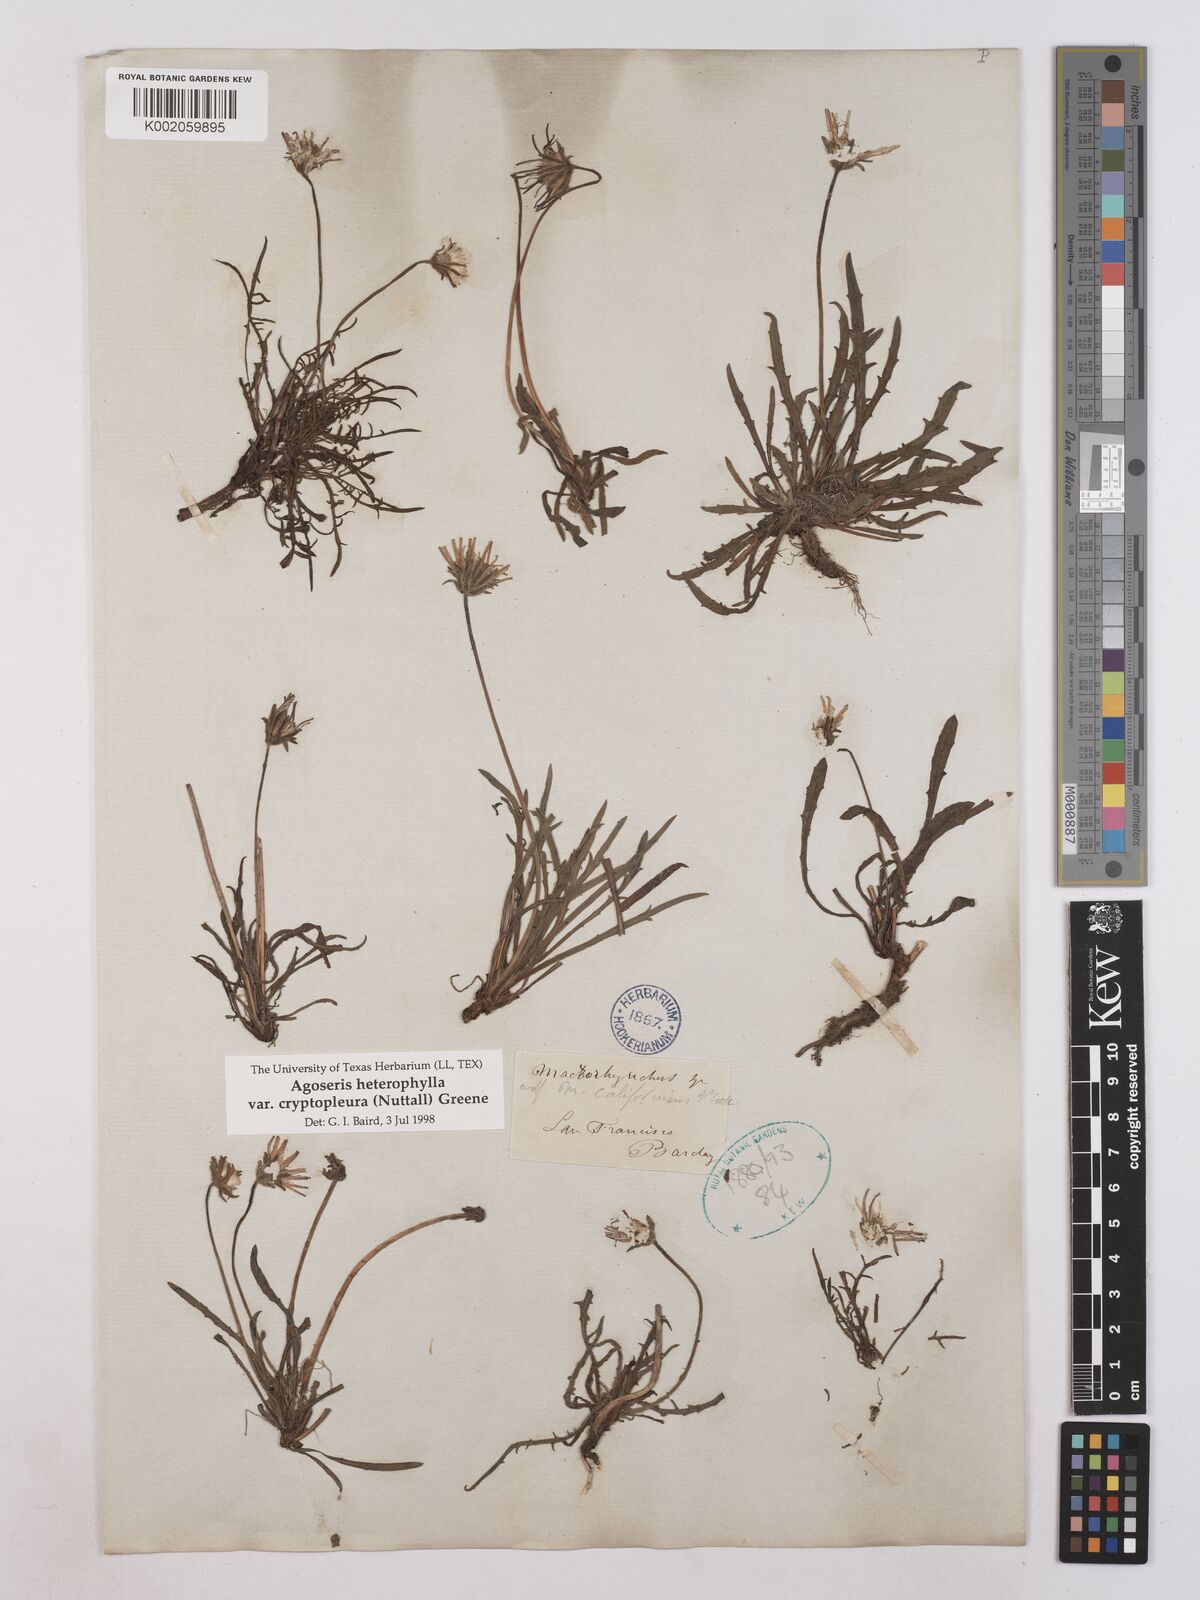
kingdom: Plantae
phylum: Tracheophyta
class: Magnoliopsida
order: Asterales
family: Asteraceae
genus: Agoseris
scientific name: Agoseris heterophylla
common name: Annual agoseris
